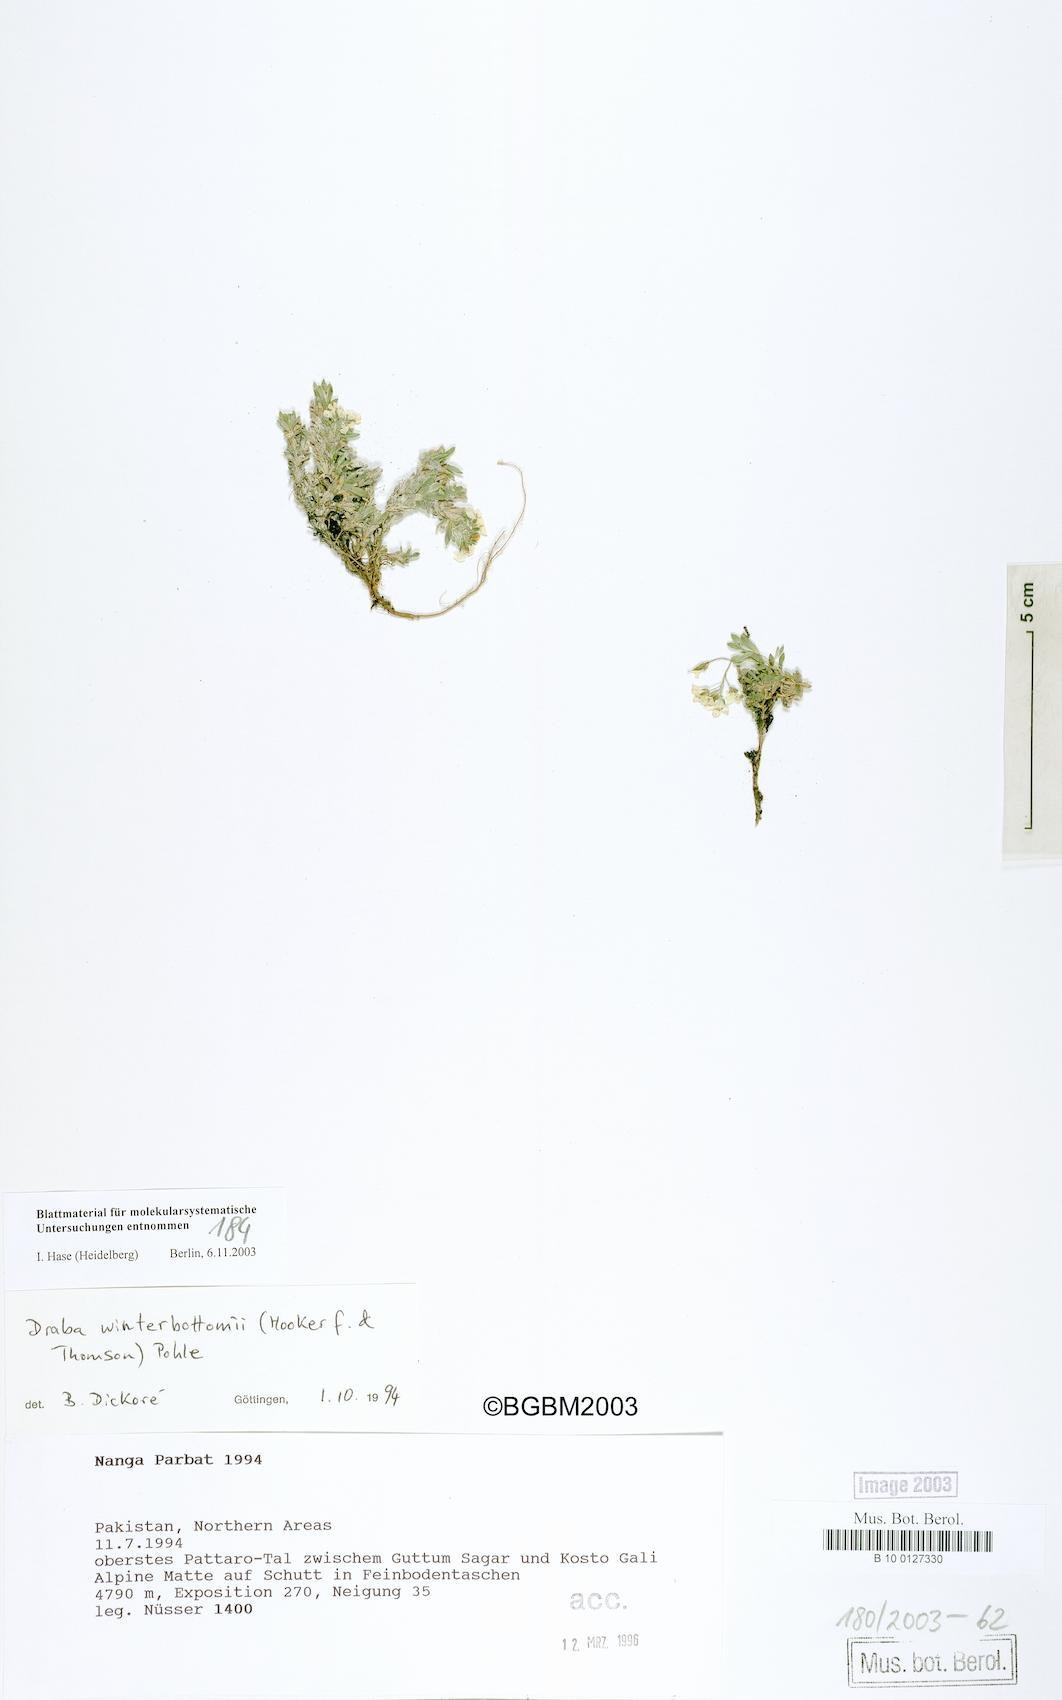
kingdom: Plantae
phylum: Tracheophyta
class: Magnoliopsida
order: Brassicales
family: Brassicaceae
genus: Draba
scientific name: Draba winterbottomii
